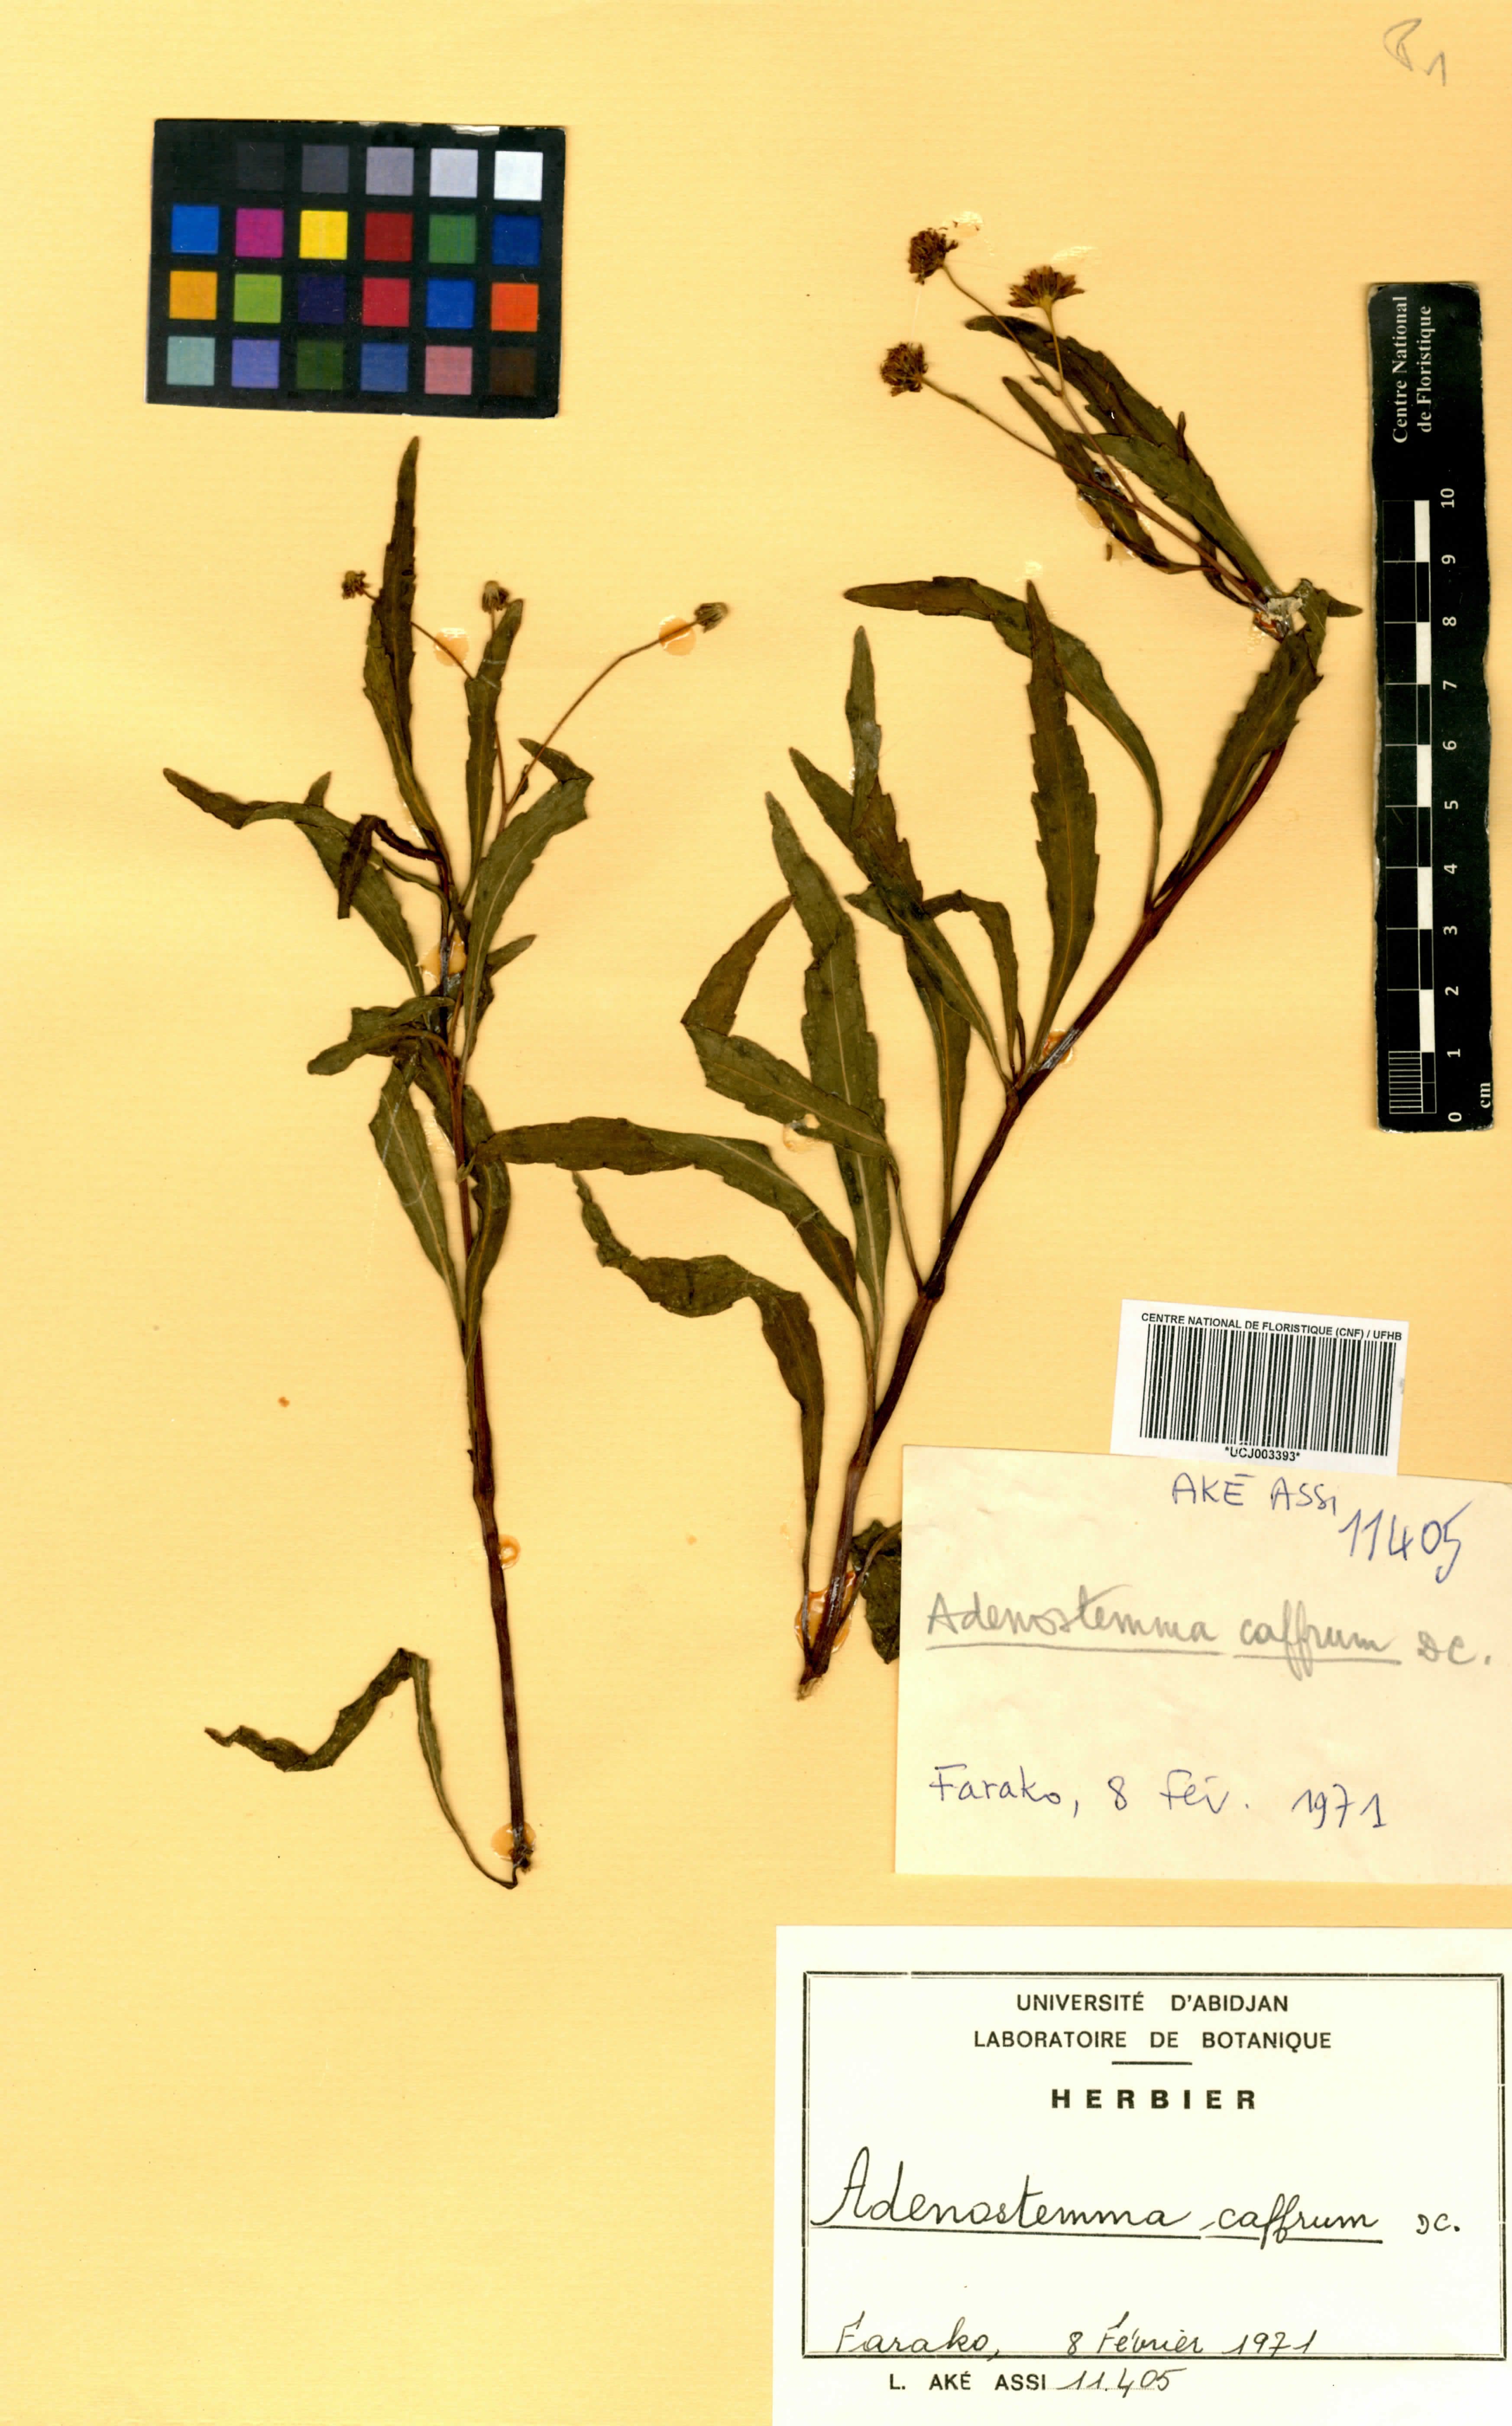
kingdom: Plantae
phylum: Tracheophyta
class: Magnoliopsida
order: Asterales
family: Asteraceae
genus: Adenostemma
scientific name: Adenostemma caffrum
